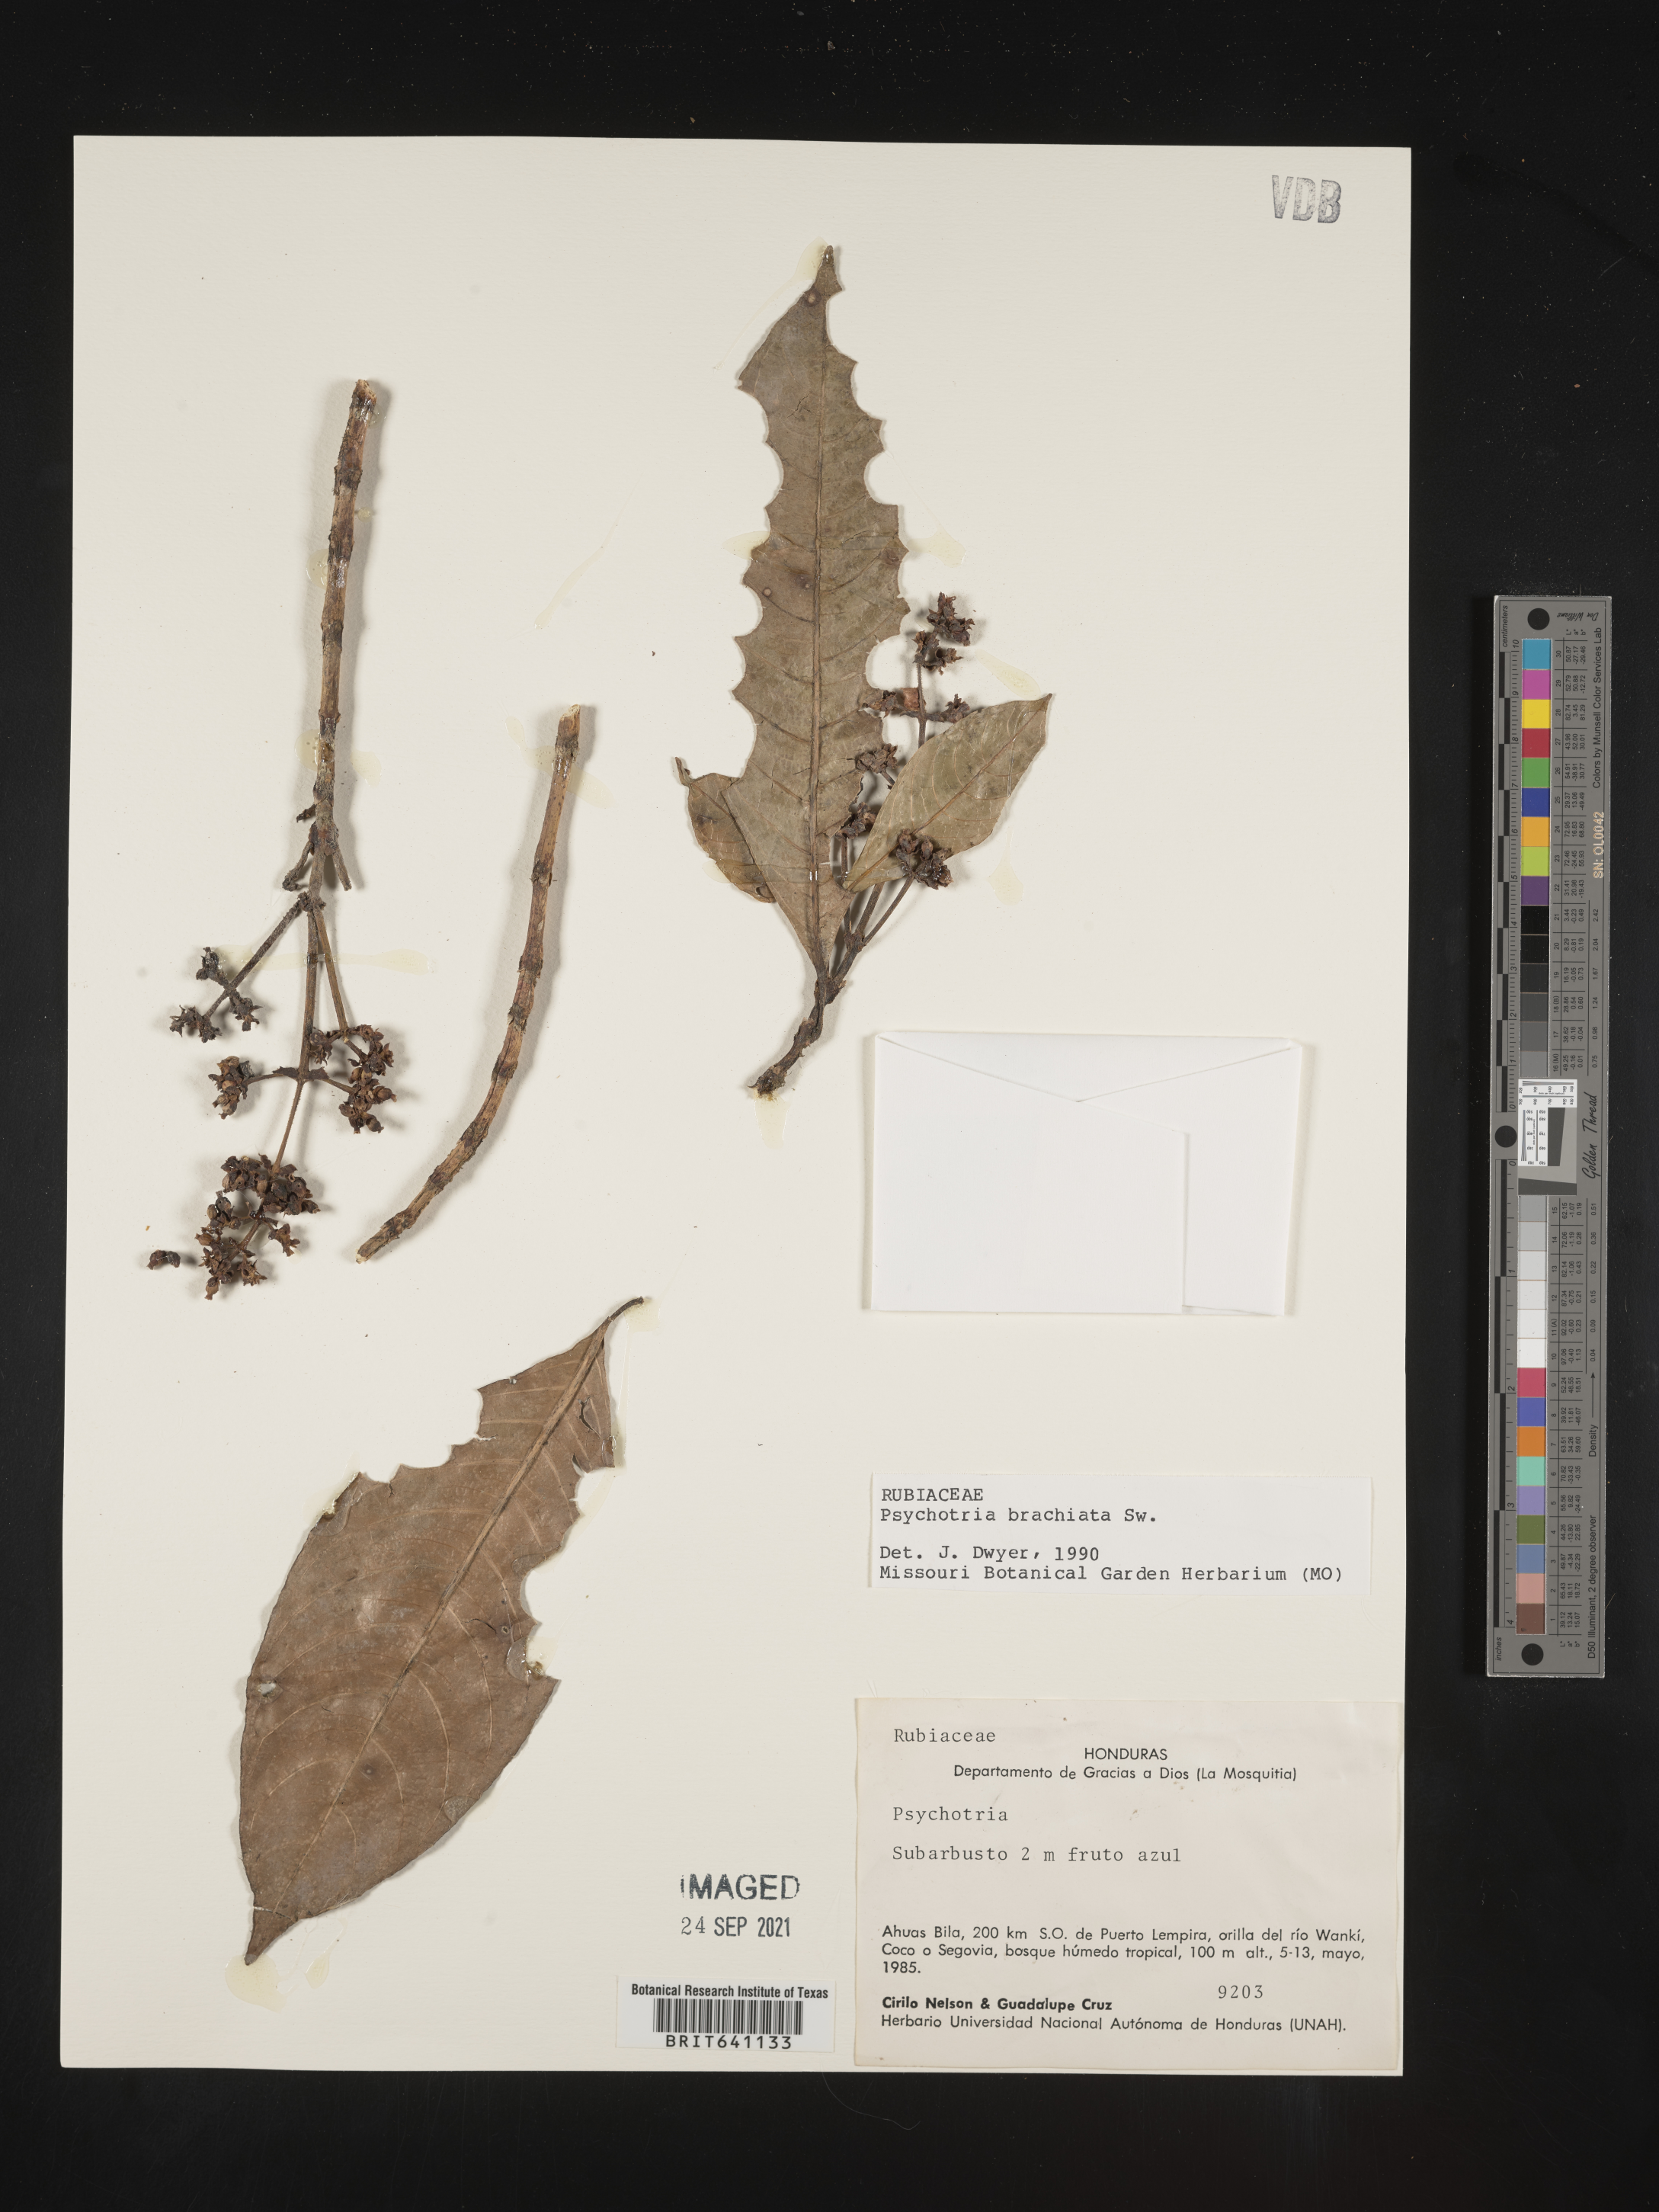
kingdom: Plantae
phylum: Tracheophyta
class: Magnoliopsida
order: Gentianales
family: Rubiaceae
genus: Psychotria
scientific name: Psychotria
